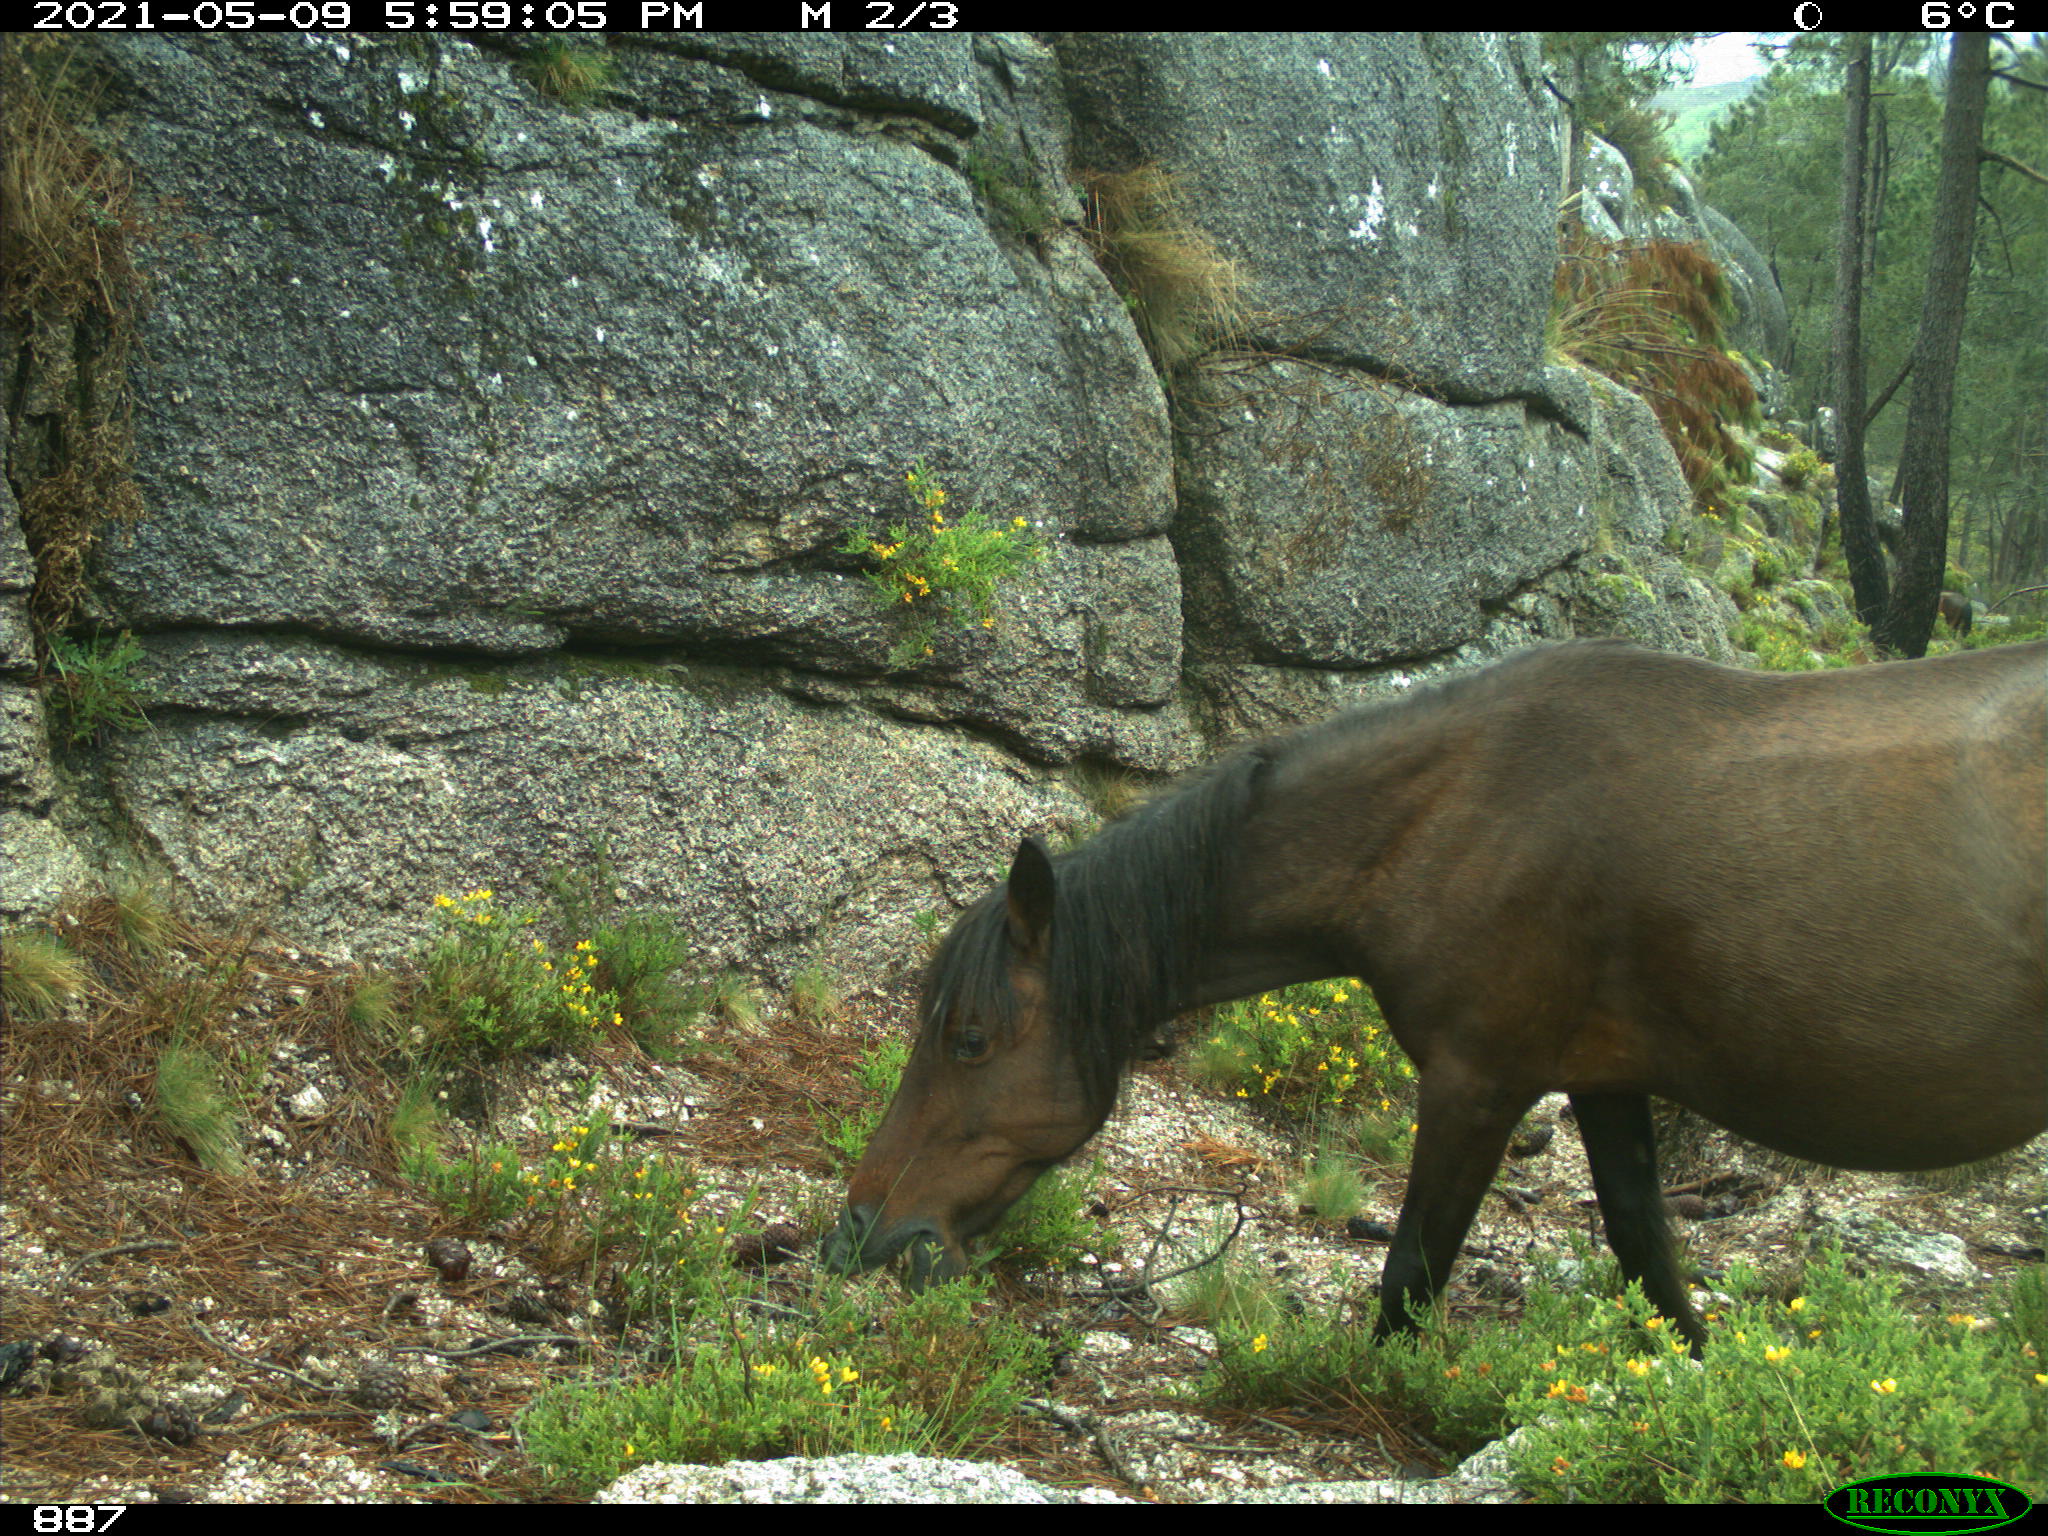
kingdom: Animalia
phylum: Chordata
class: Mammalia
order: Perissodactyla
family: Equidae
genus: Equus
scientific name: Equus caballus
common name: Horse
